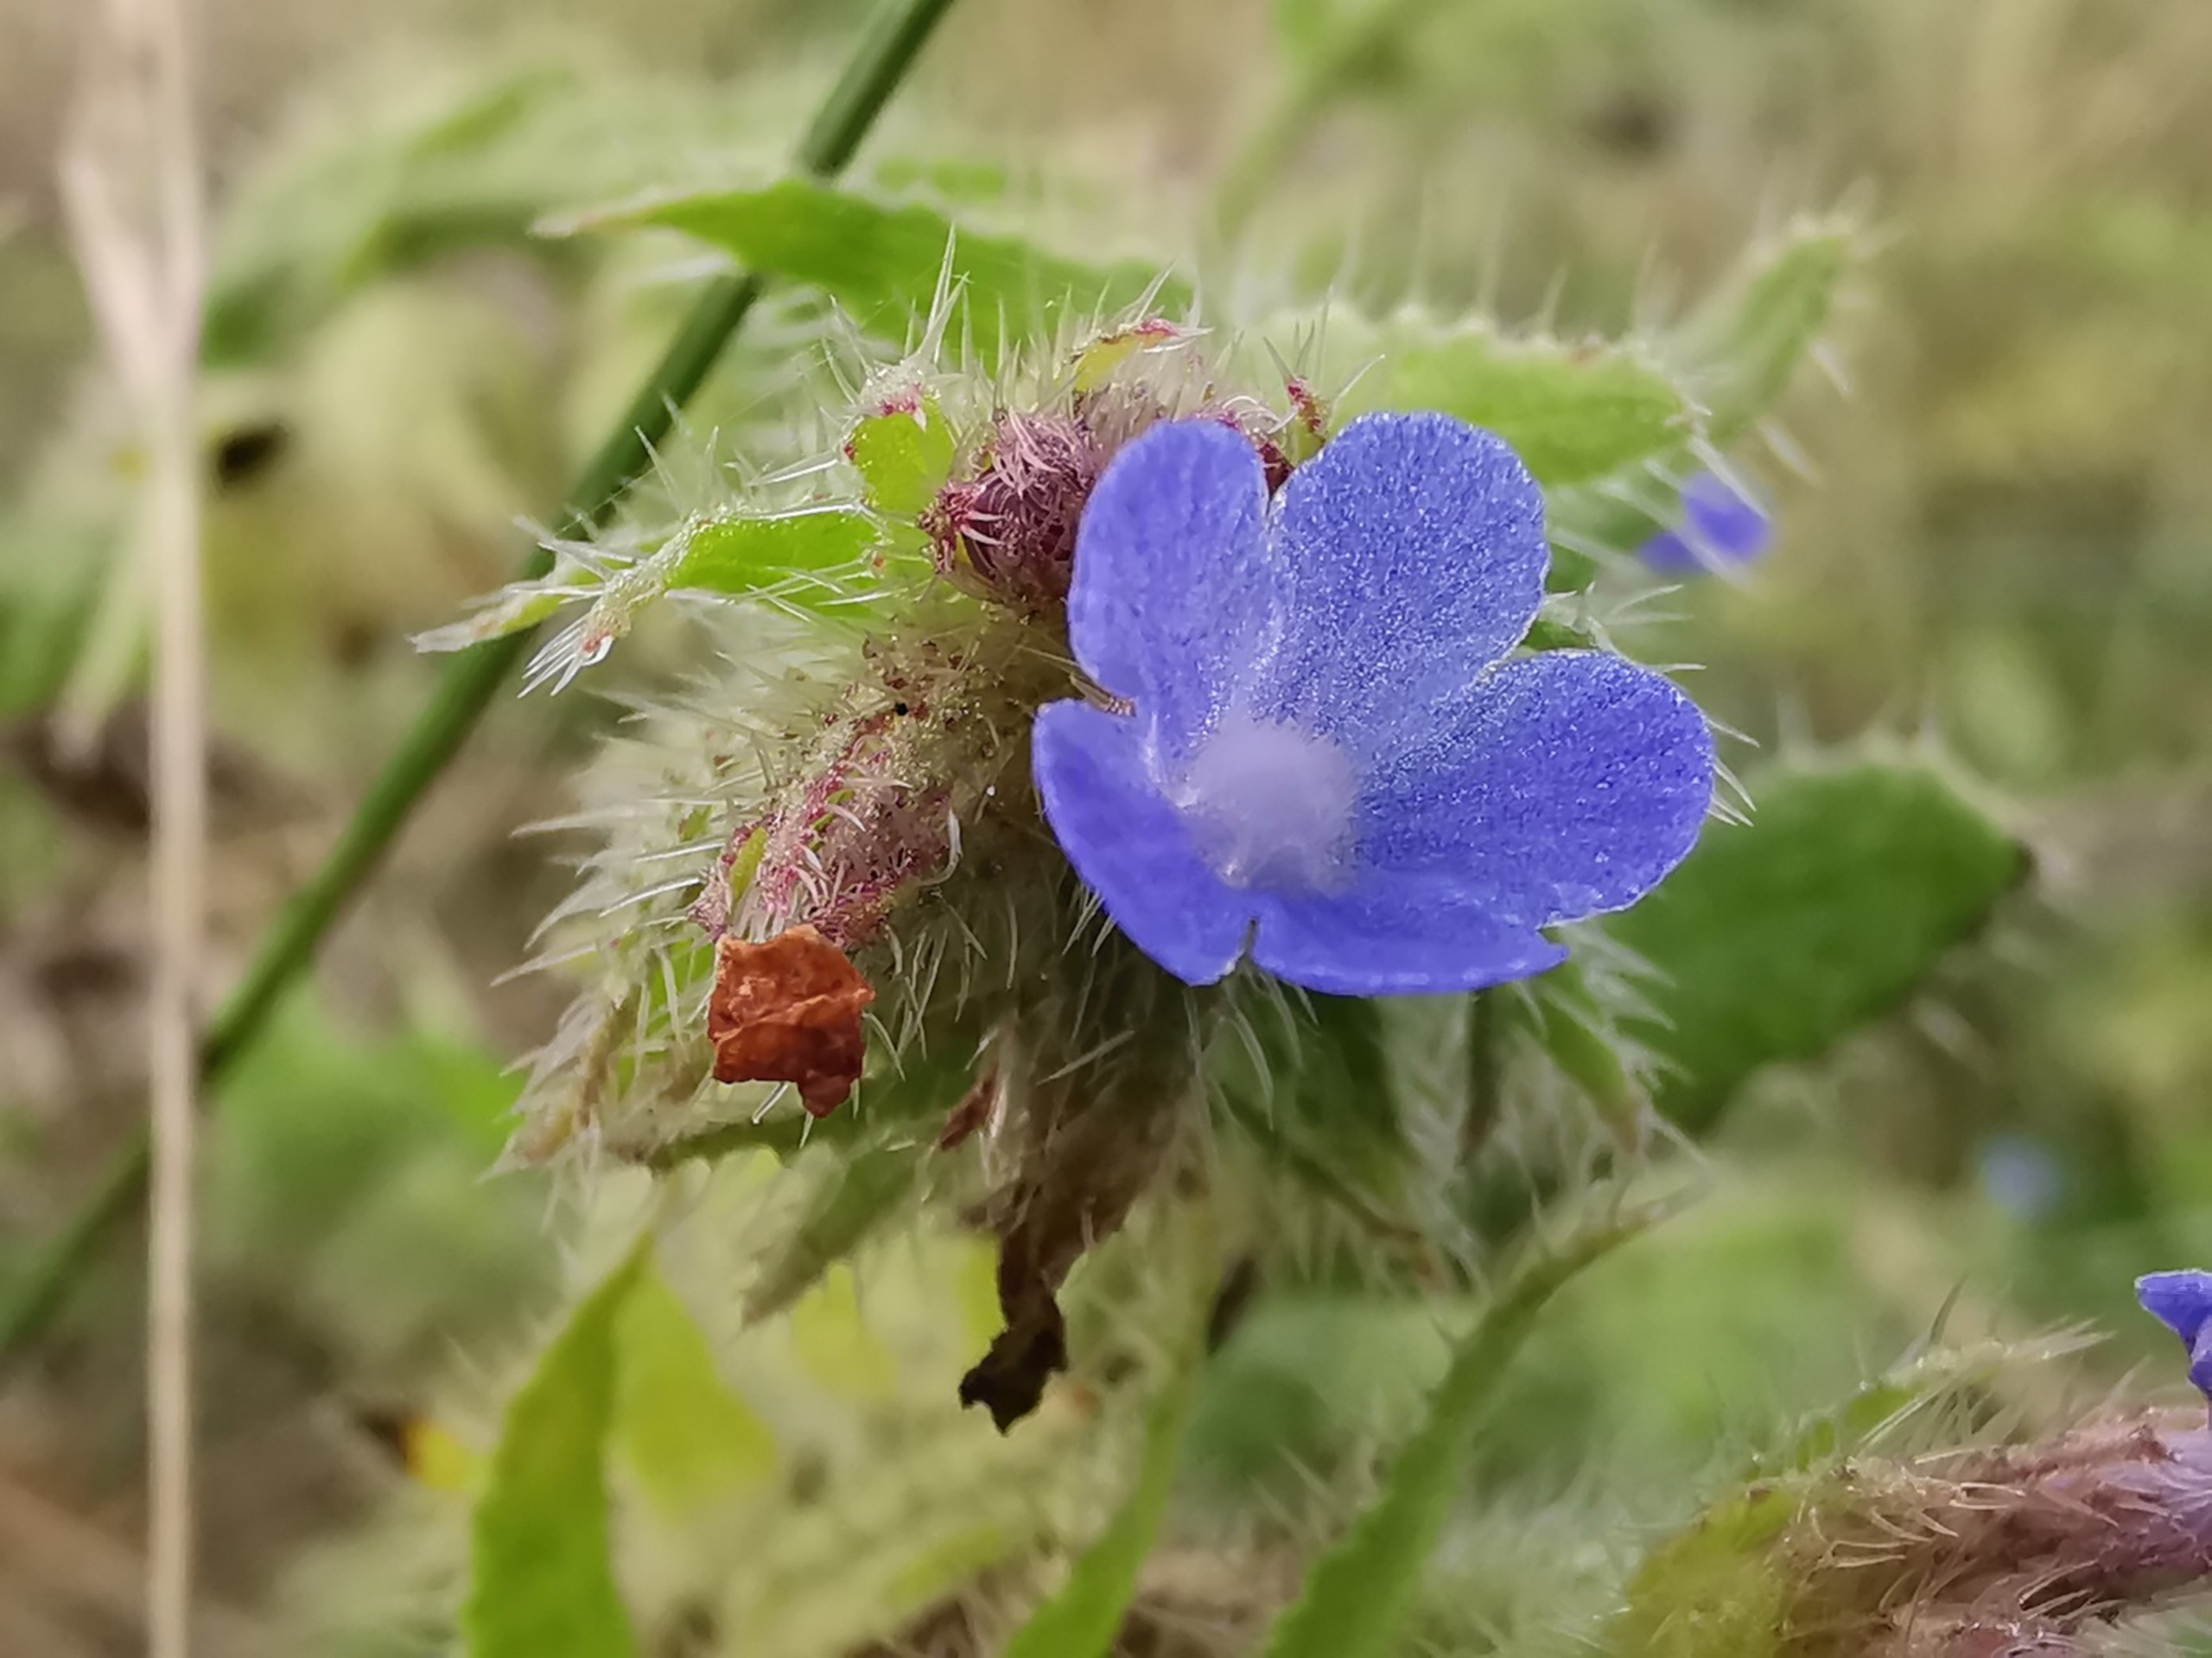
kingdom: Plantae
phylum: Tracheophyta
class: Magnoliopsida
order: Boraginales
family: Boraginaceae
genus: Lycopsis
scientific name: Lycopsis arvensis
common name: Krumhals
